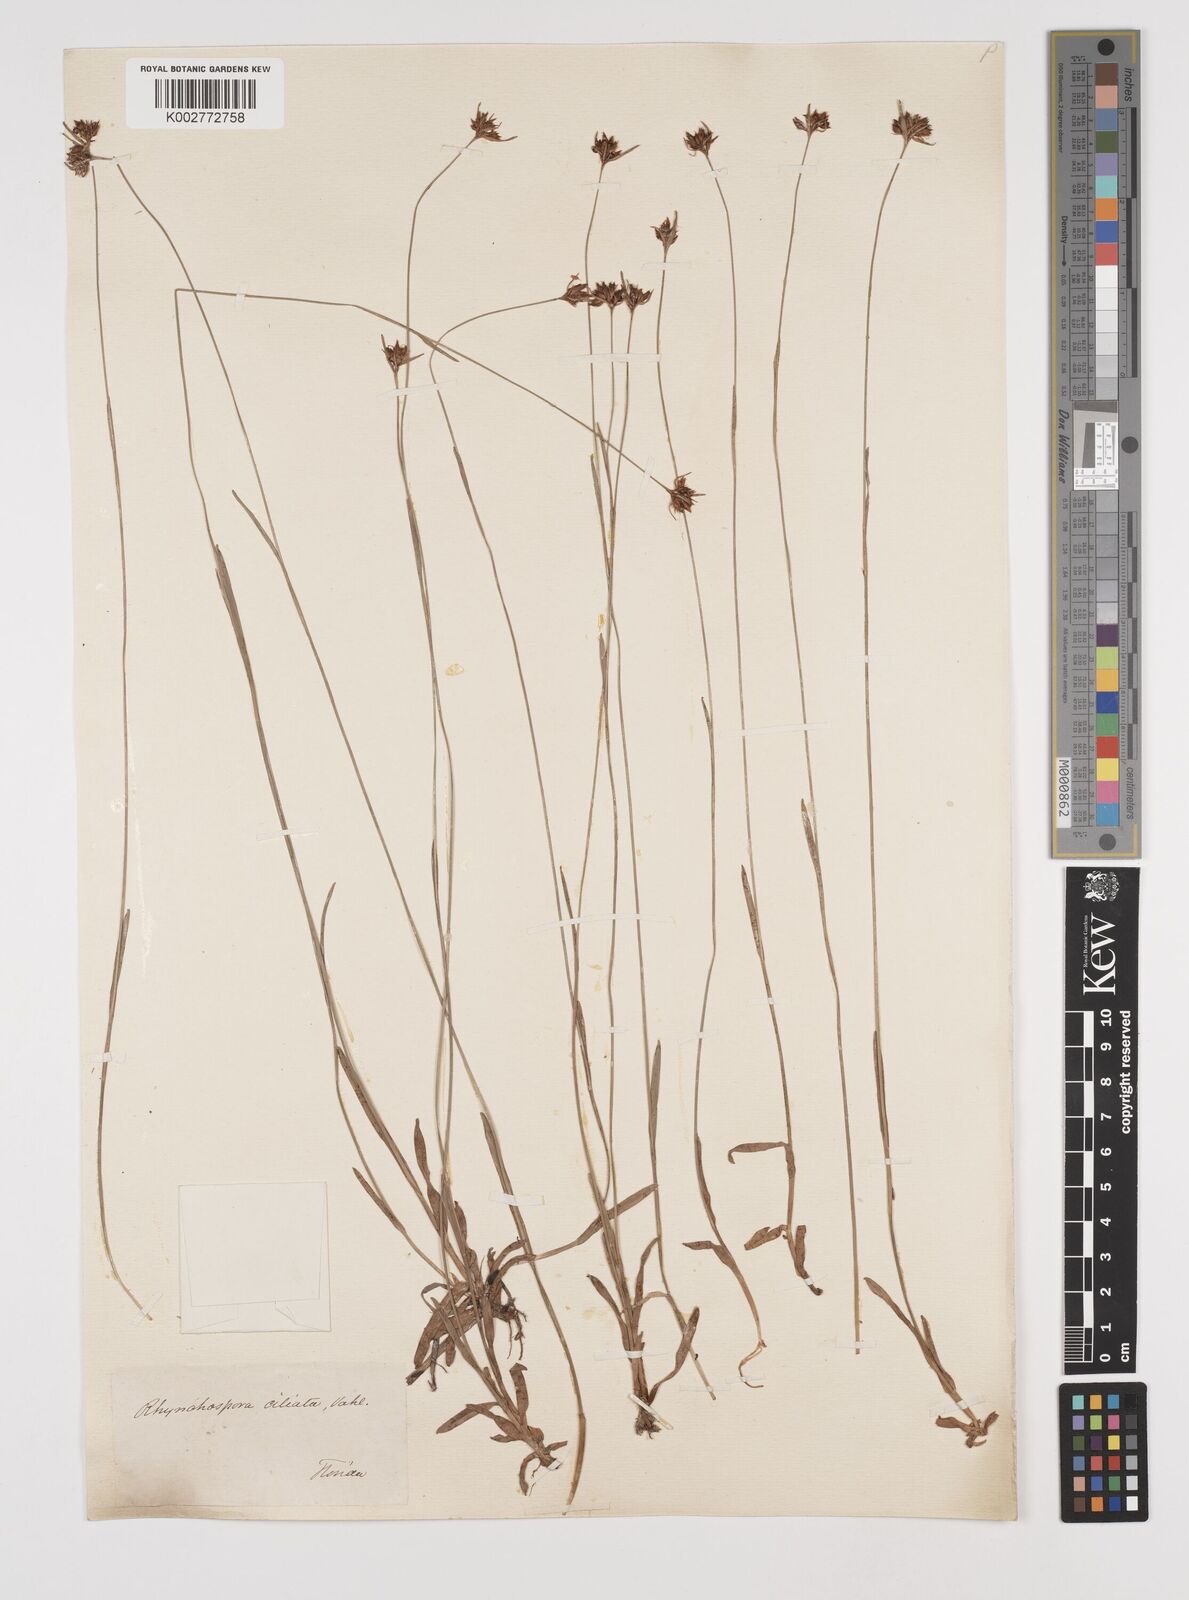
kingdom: Plantae
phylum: Tracheophyta
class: Liliopsida
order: Poales
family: Cyperaceae
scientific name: Cyperaceae
